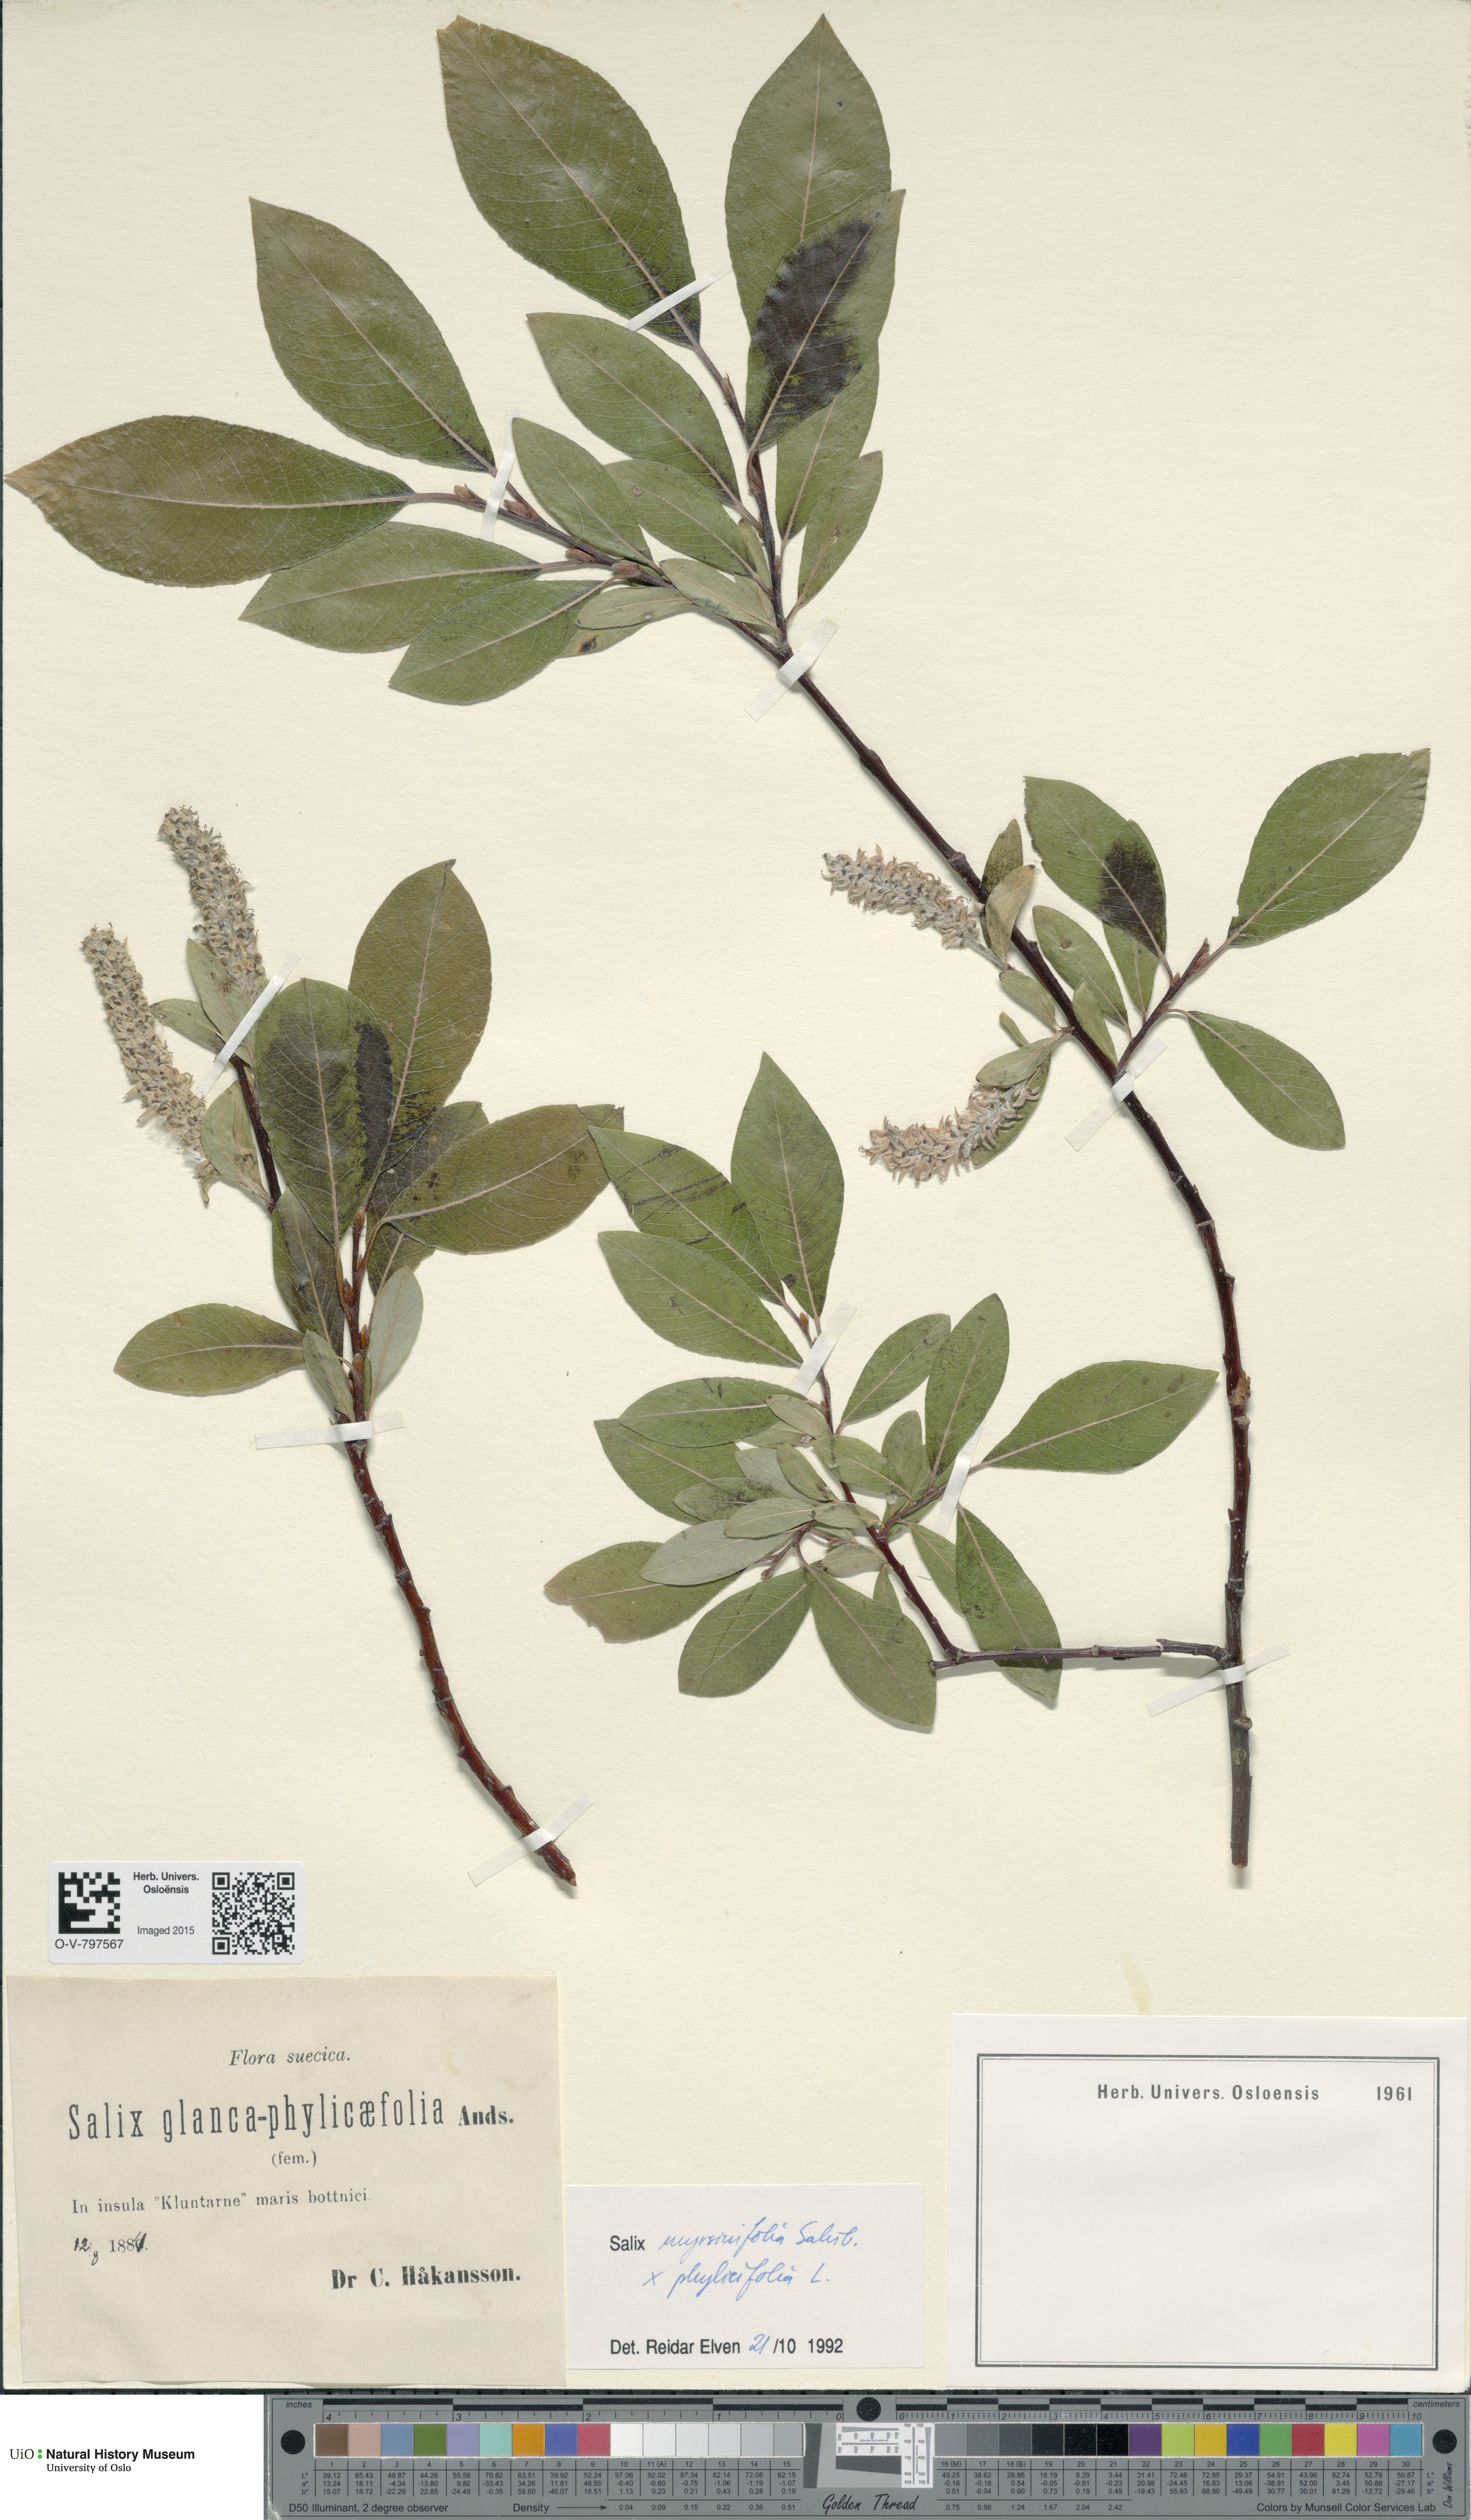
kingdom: Plantae
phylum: Tracheophyta
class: Magnoliopsida
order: Malpighiales
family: Salicaceae
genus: Salix
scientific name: Salix
